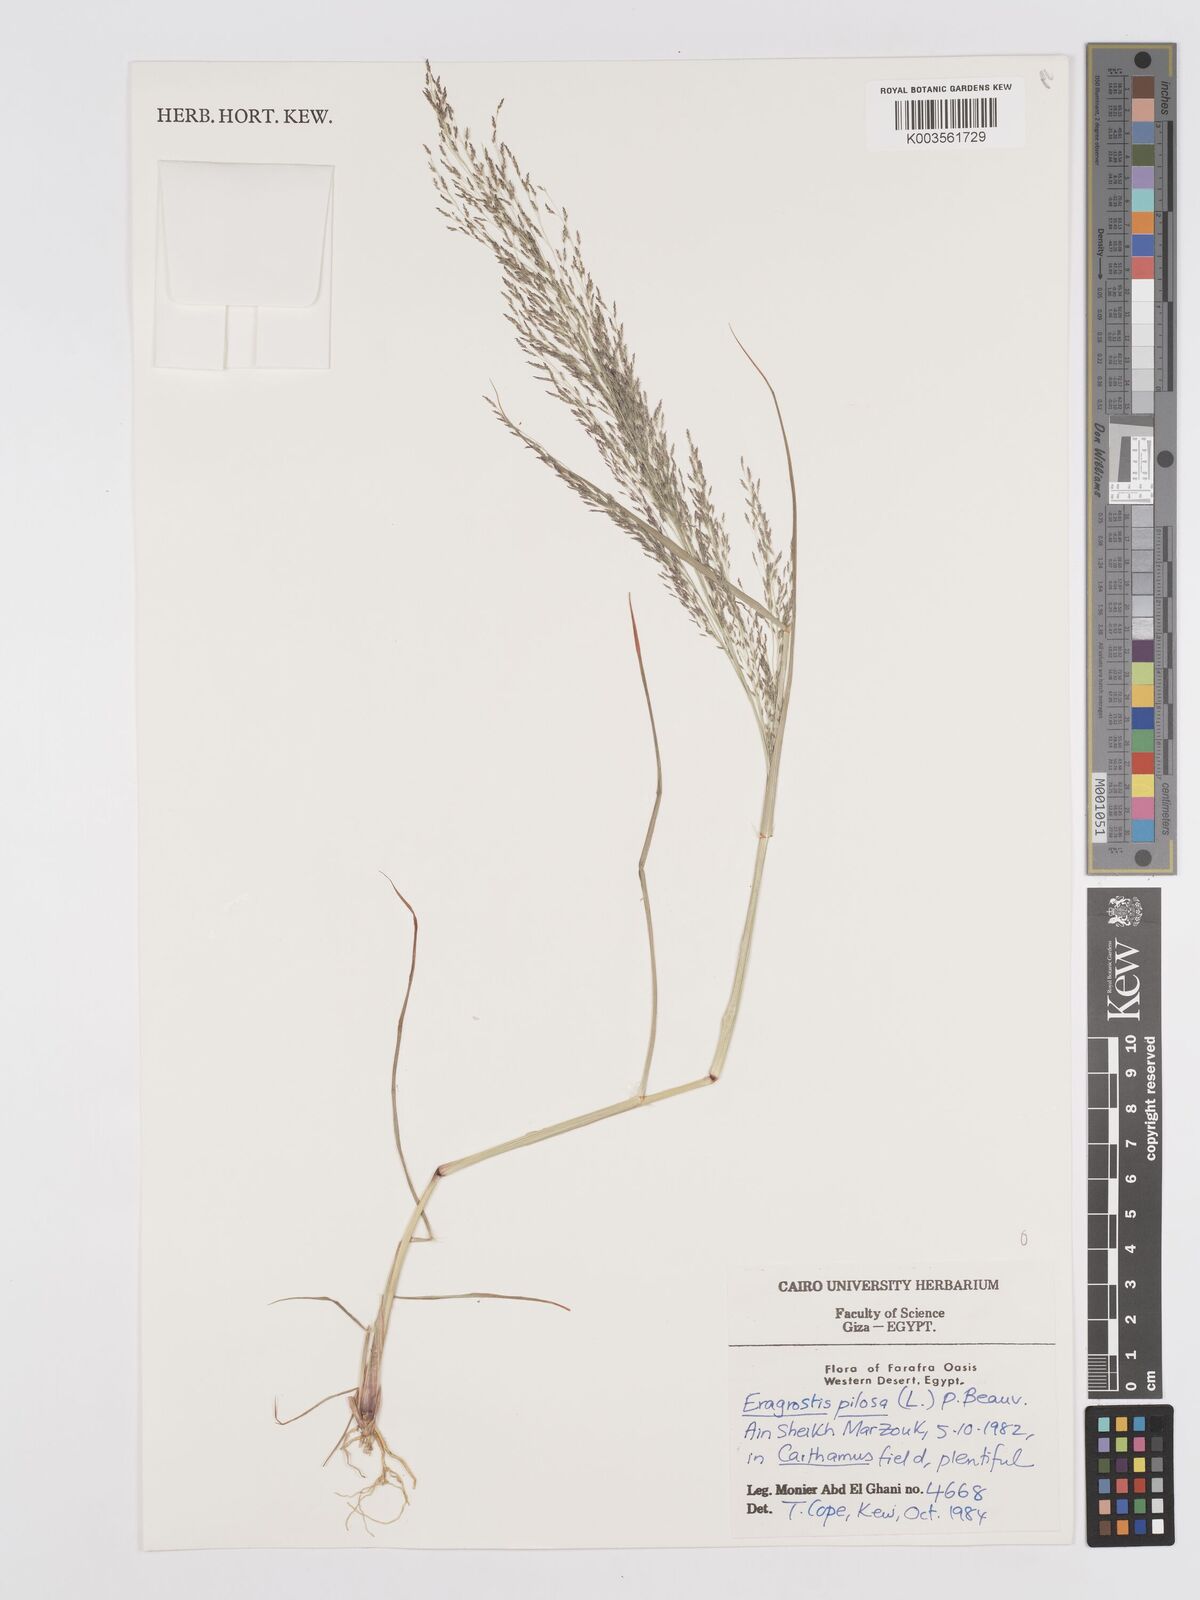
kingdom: Plantae
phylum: Tracheophyta
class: Liliopsida
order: Poales
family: Poaceae
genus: Eragrostis
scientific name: Eragrostis pilosa
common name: Indian lovegrass
